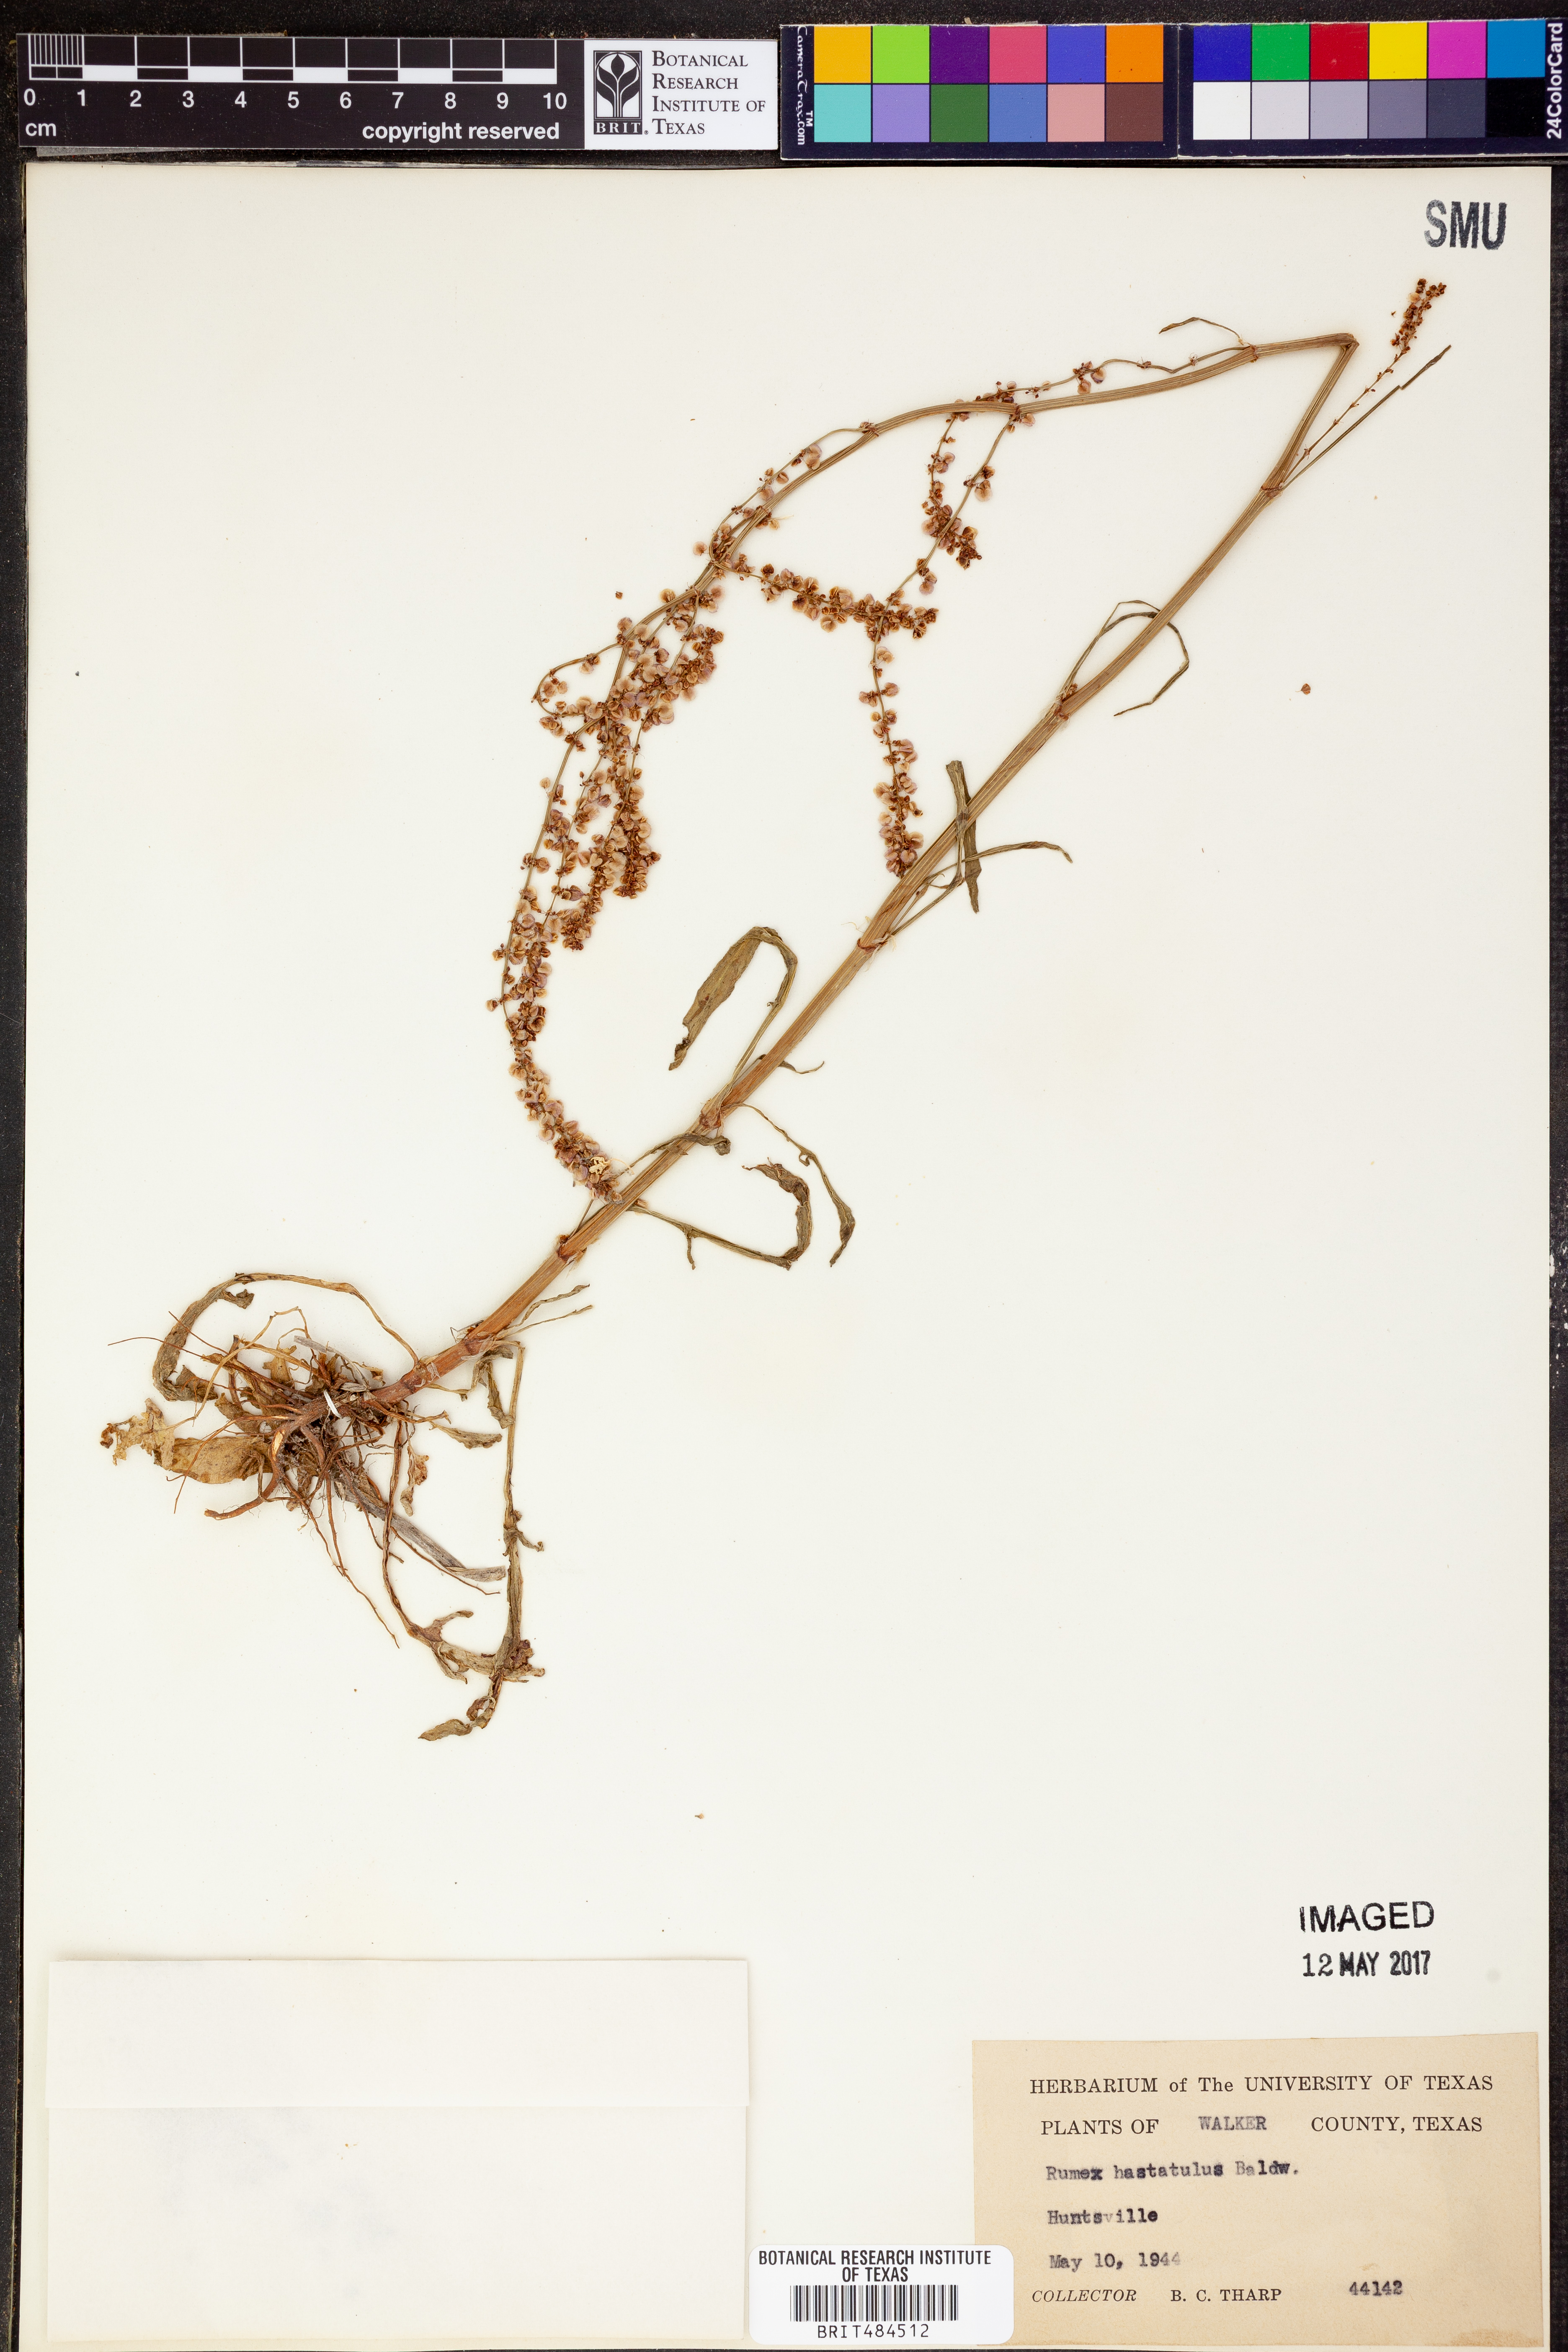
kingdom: Plantae
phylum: Tracheophyta
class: Magnoliopsida
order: Caryophyllales
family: Polygonaceae
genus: Rumex
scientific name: Rumex hastatulus
